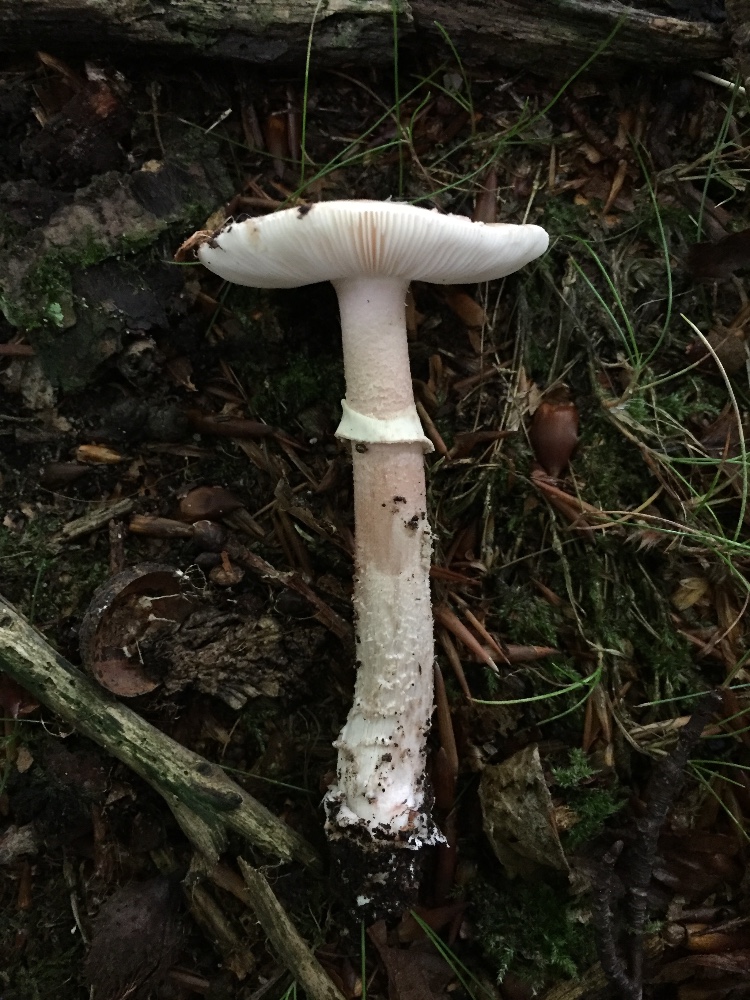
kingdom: Fungi
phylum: Basidiomycota
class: Agaricomycetes
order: Agaricales
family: Amanitaceae
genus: Amanita
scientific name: Amanita rubescens
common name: rødmende fluesvamp
